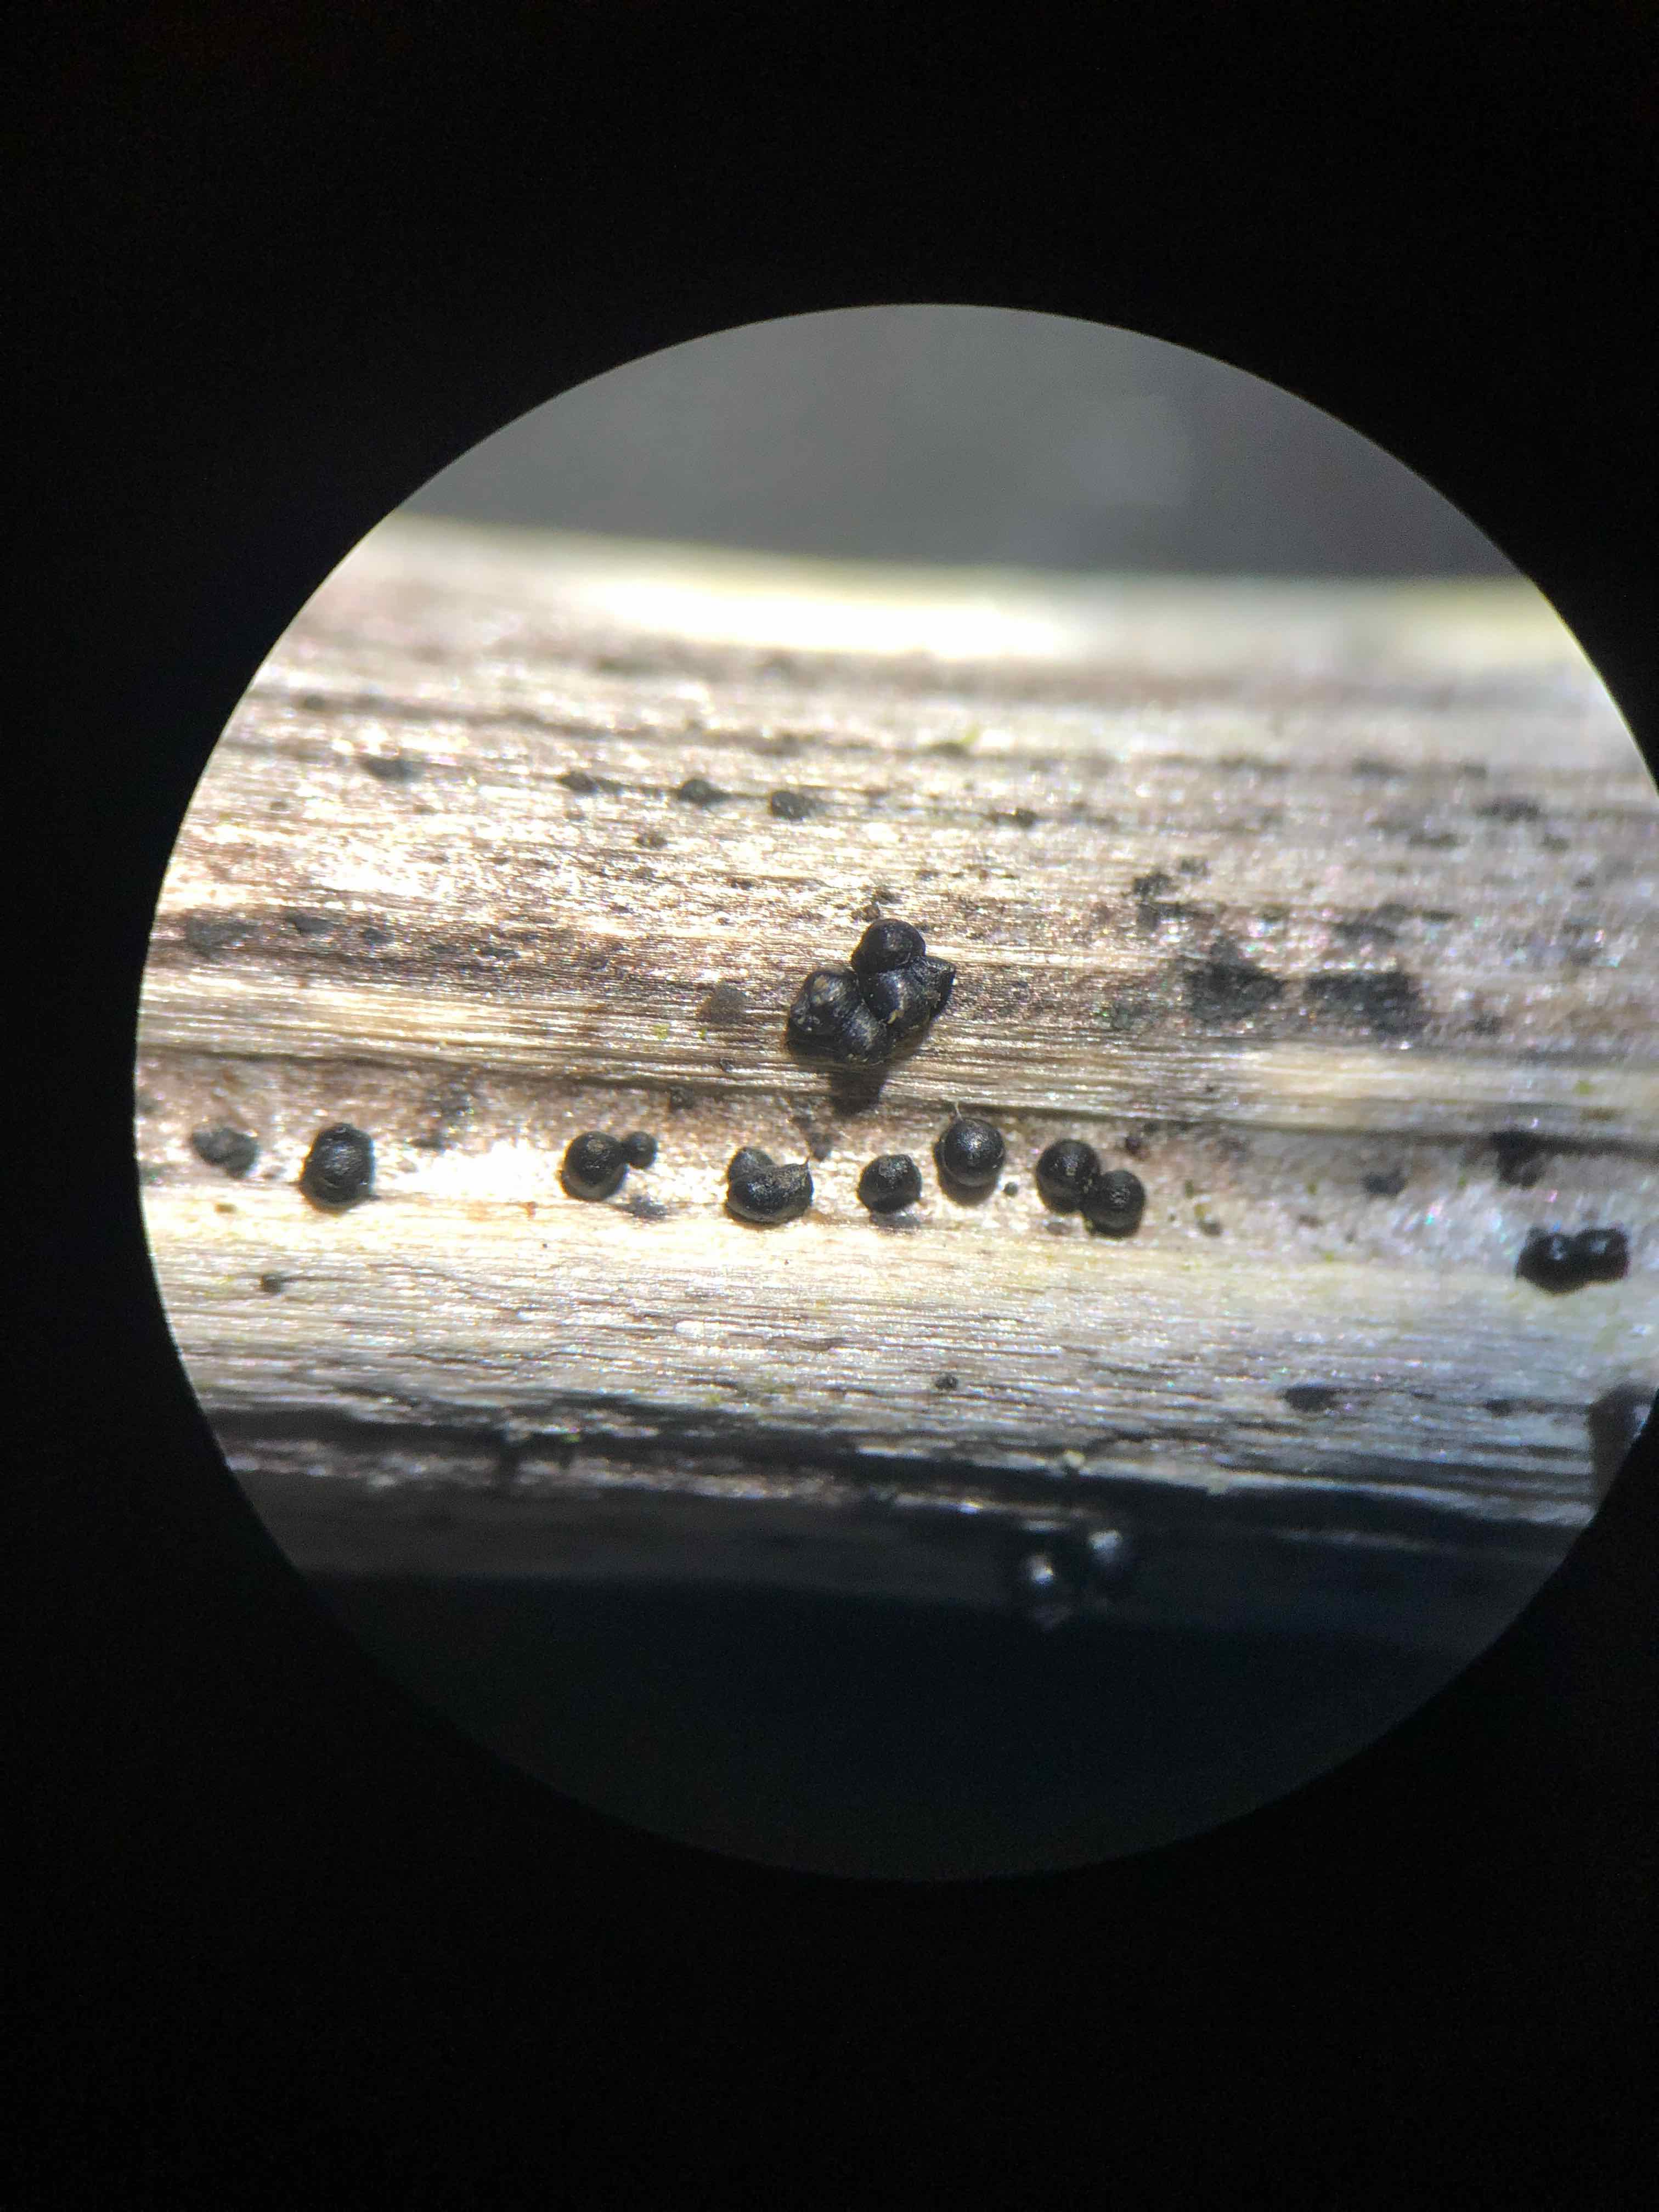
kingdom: Fungi
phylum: Ascomycota
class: Dothideomycetes
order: Pleosporales
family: Leptosphaeriaceae
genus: Leptosphaeria
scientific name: Leptosphaeria acuta
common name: spids kulkegle
